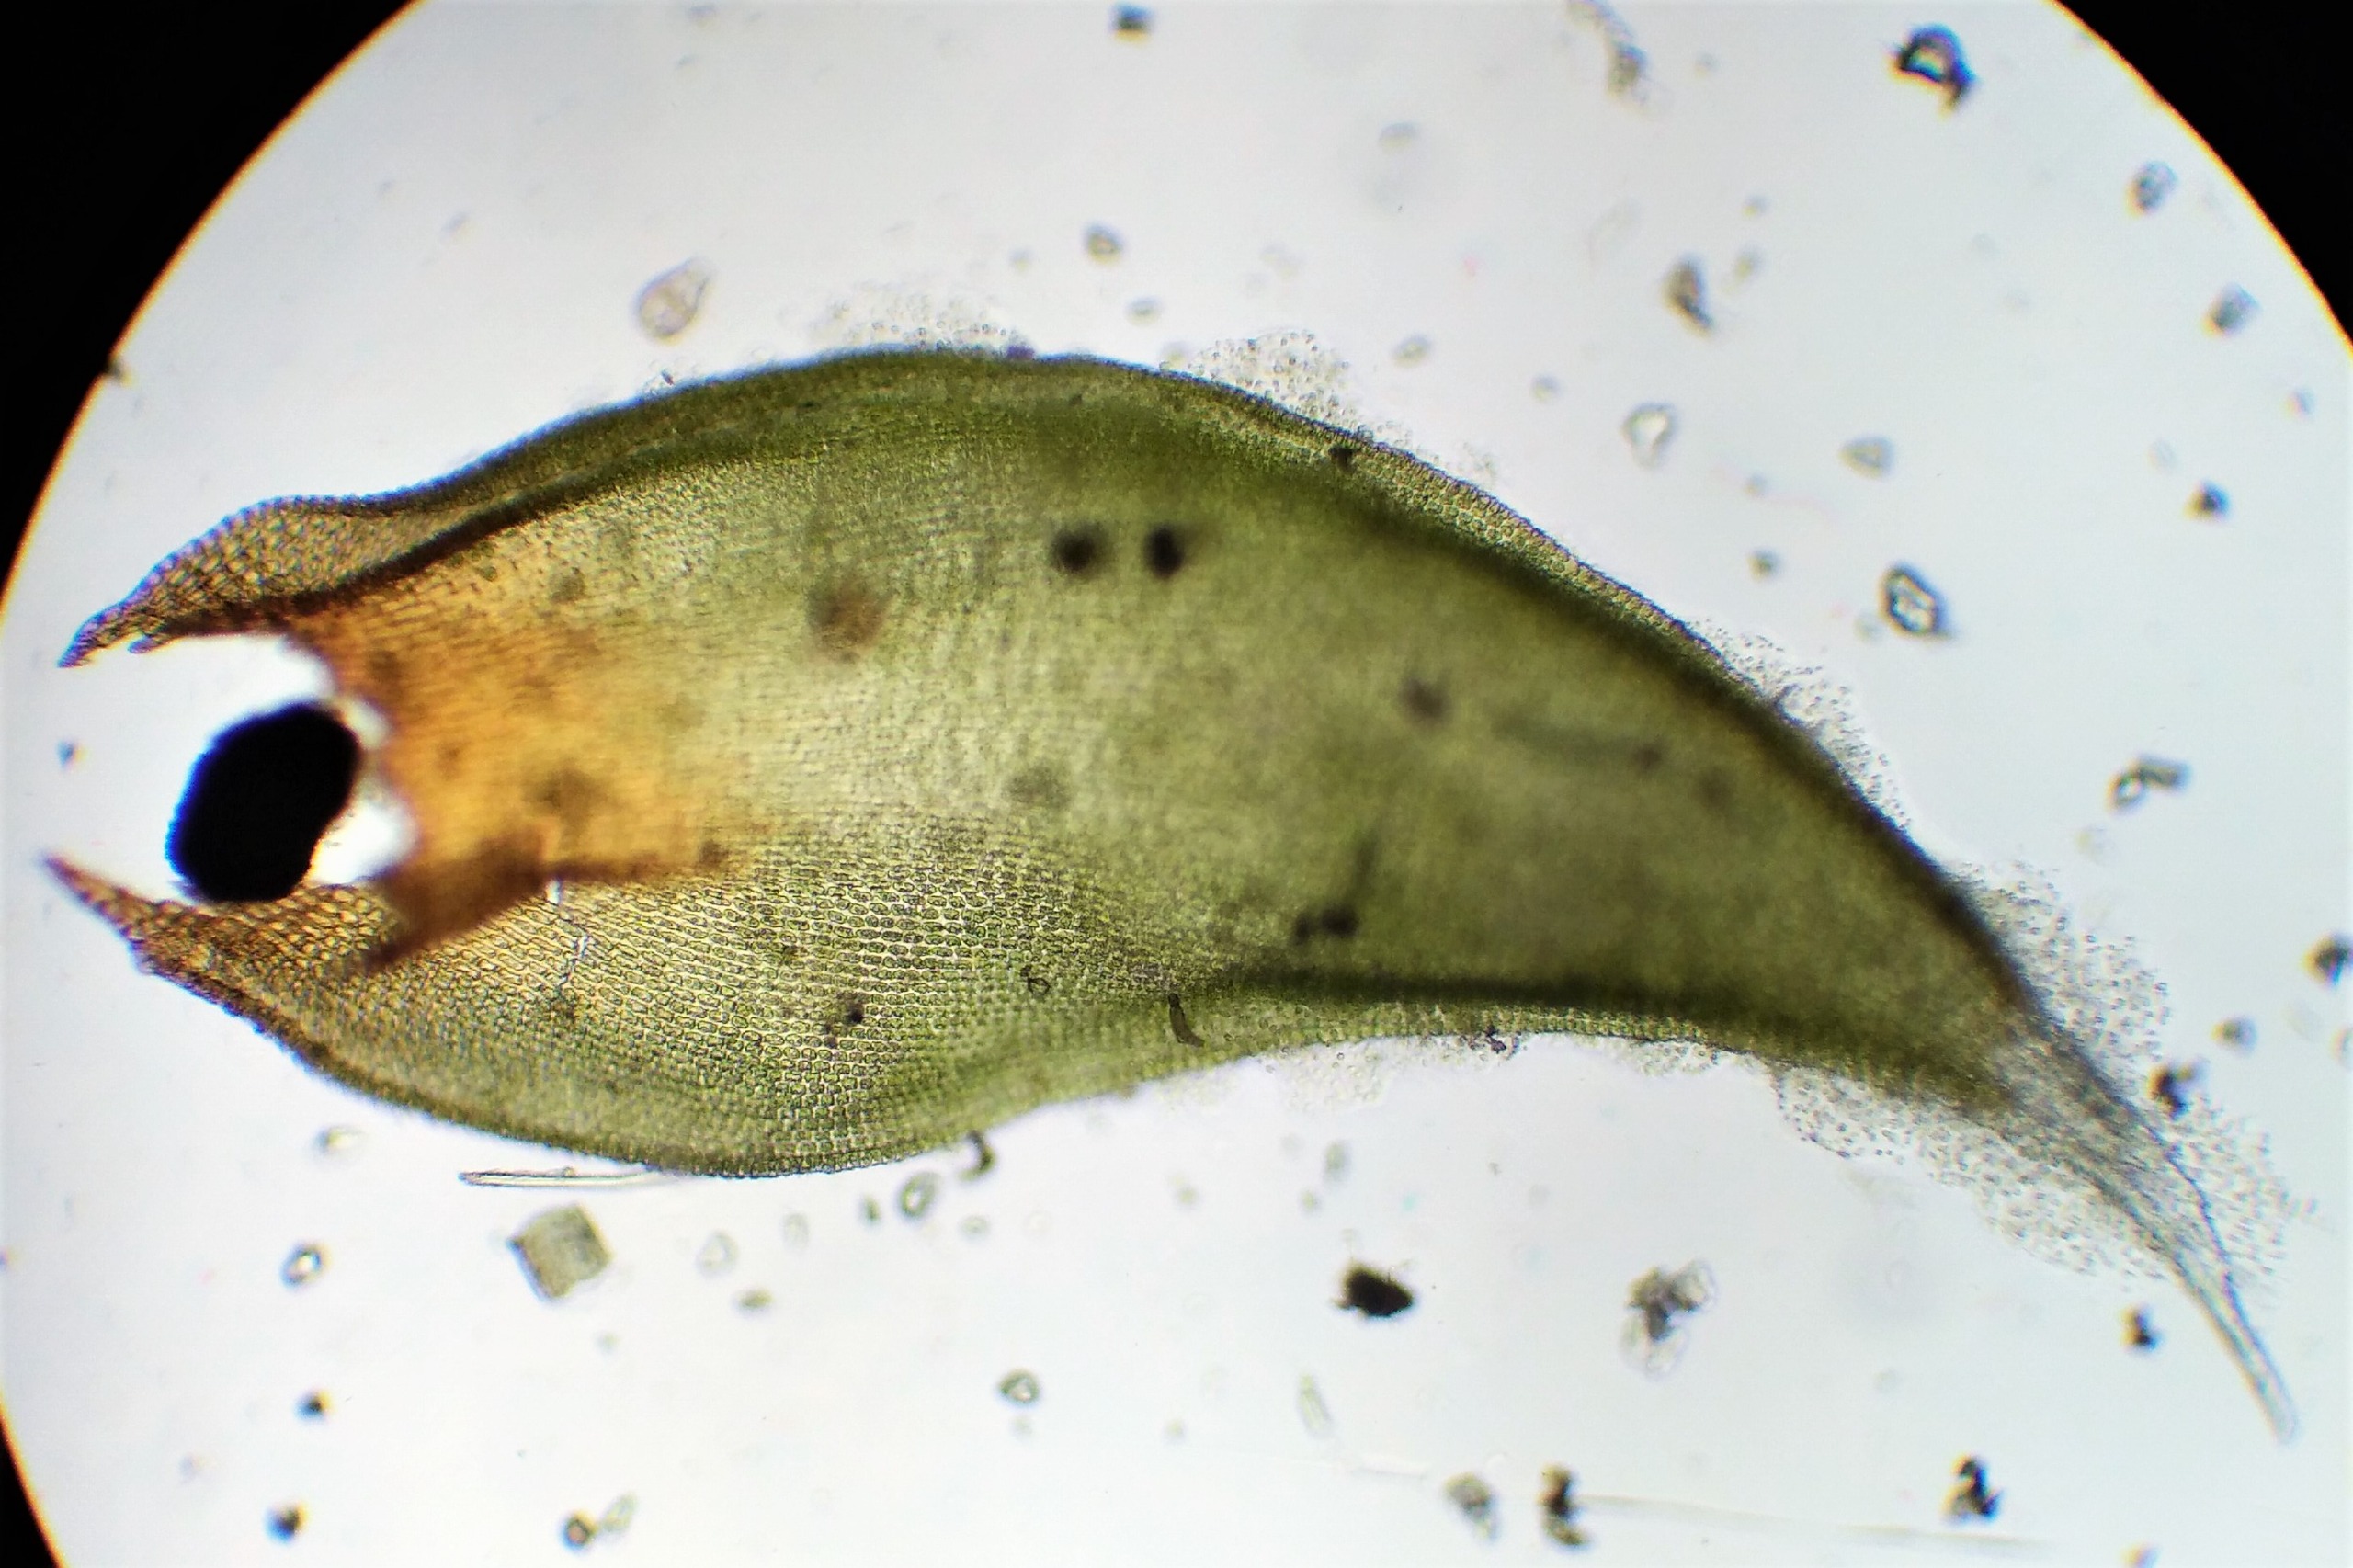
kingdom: Plantae
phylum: Bryophyta
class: Bryopsida
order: Hedwigiales
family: Hedwigiaceae
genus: Hedwigia
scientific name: Hedwigia ciliata
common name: Hvidspidset hedwigia
